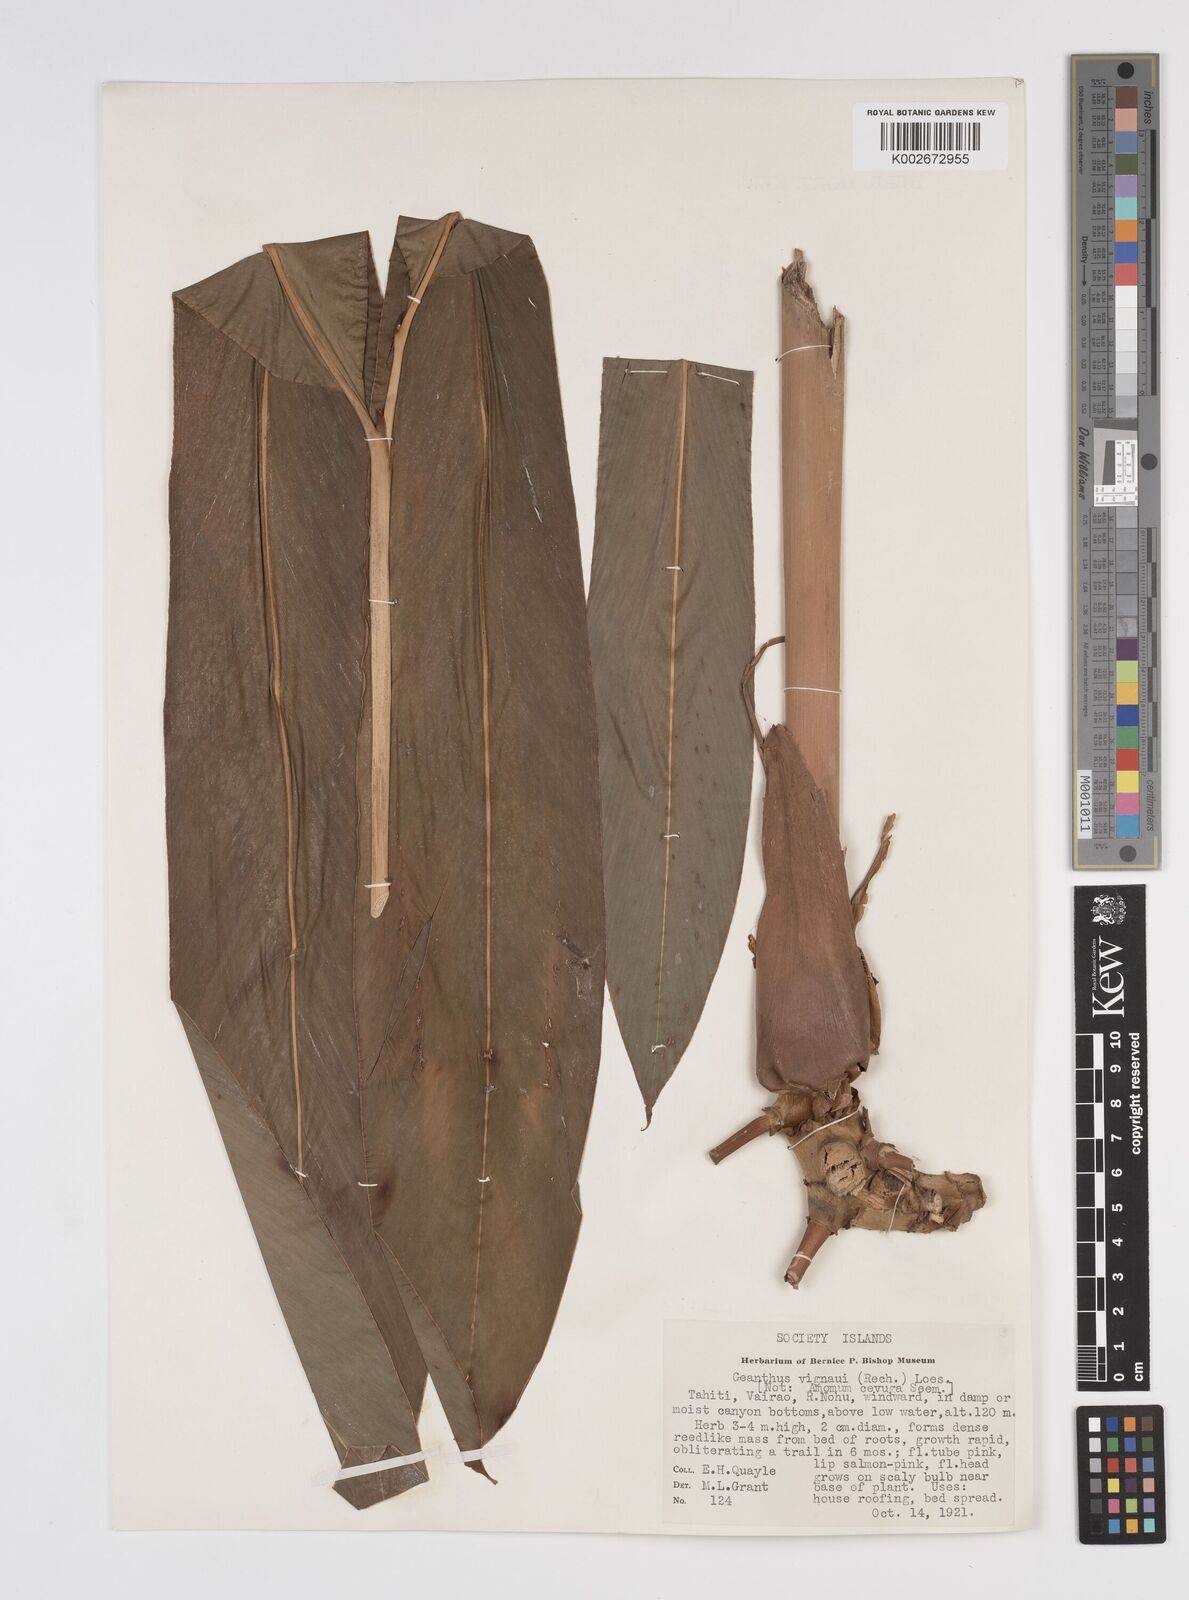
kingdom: Plantae
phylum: Tracheophyta
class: Liliopsida
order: Zingiberales
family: Zingiberaceae
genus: Etlingera
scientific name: Etlingera cevuga
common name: Waxflower
